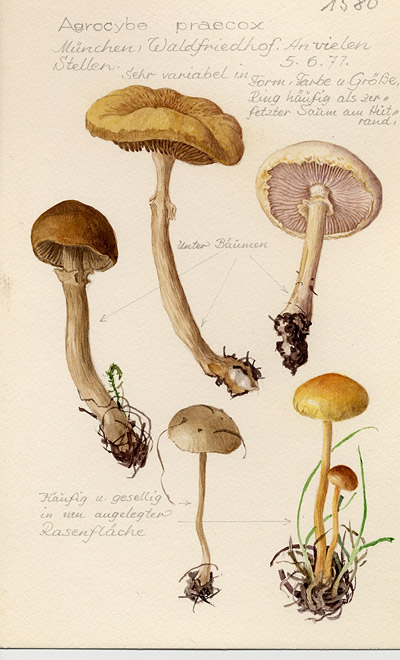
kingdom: Fungi
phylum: Basidiomycota
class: Agaricomycetes
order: Agaricales
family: Strophariaceae
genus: Agrocybe
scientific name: Agrocybe praecox
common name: Spring fieldcap
